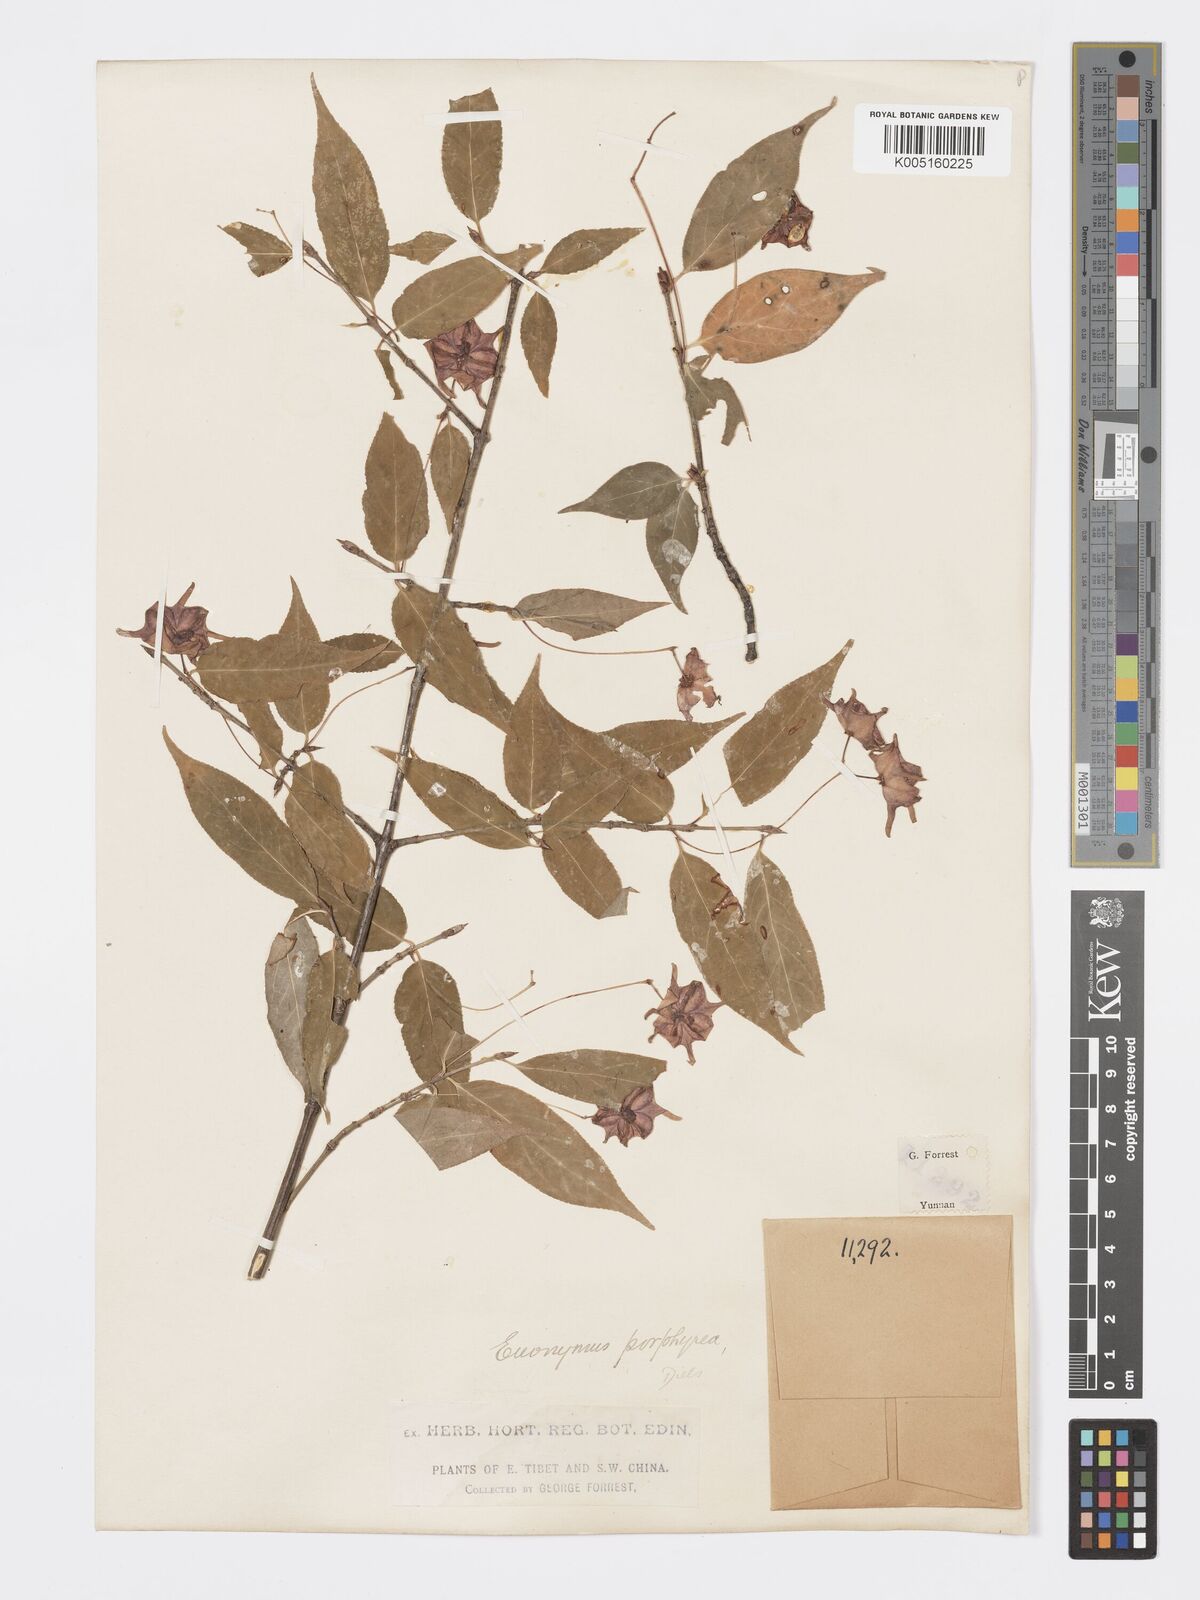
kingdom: Plantae
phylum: Tracheophyta
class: Magnoliopsida
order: Celastrales
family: Celastraceae
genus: Euonymus
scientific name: Euonymus giraldii
